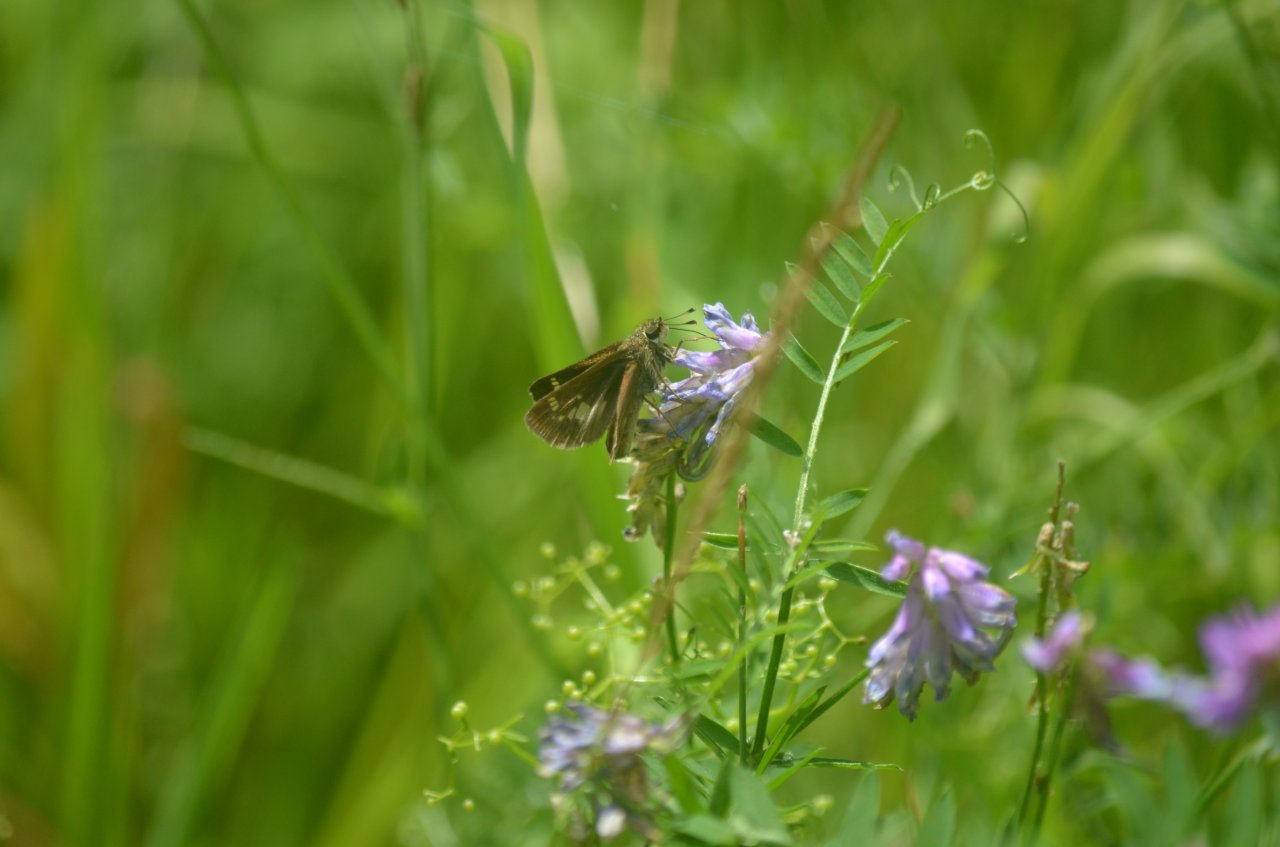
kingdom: Animalia
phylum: Arthropoda
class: Insecta
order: Lepidoptera
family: Hesperiidae
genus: Euphyes
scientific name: Euphyes
